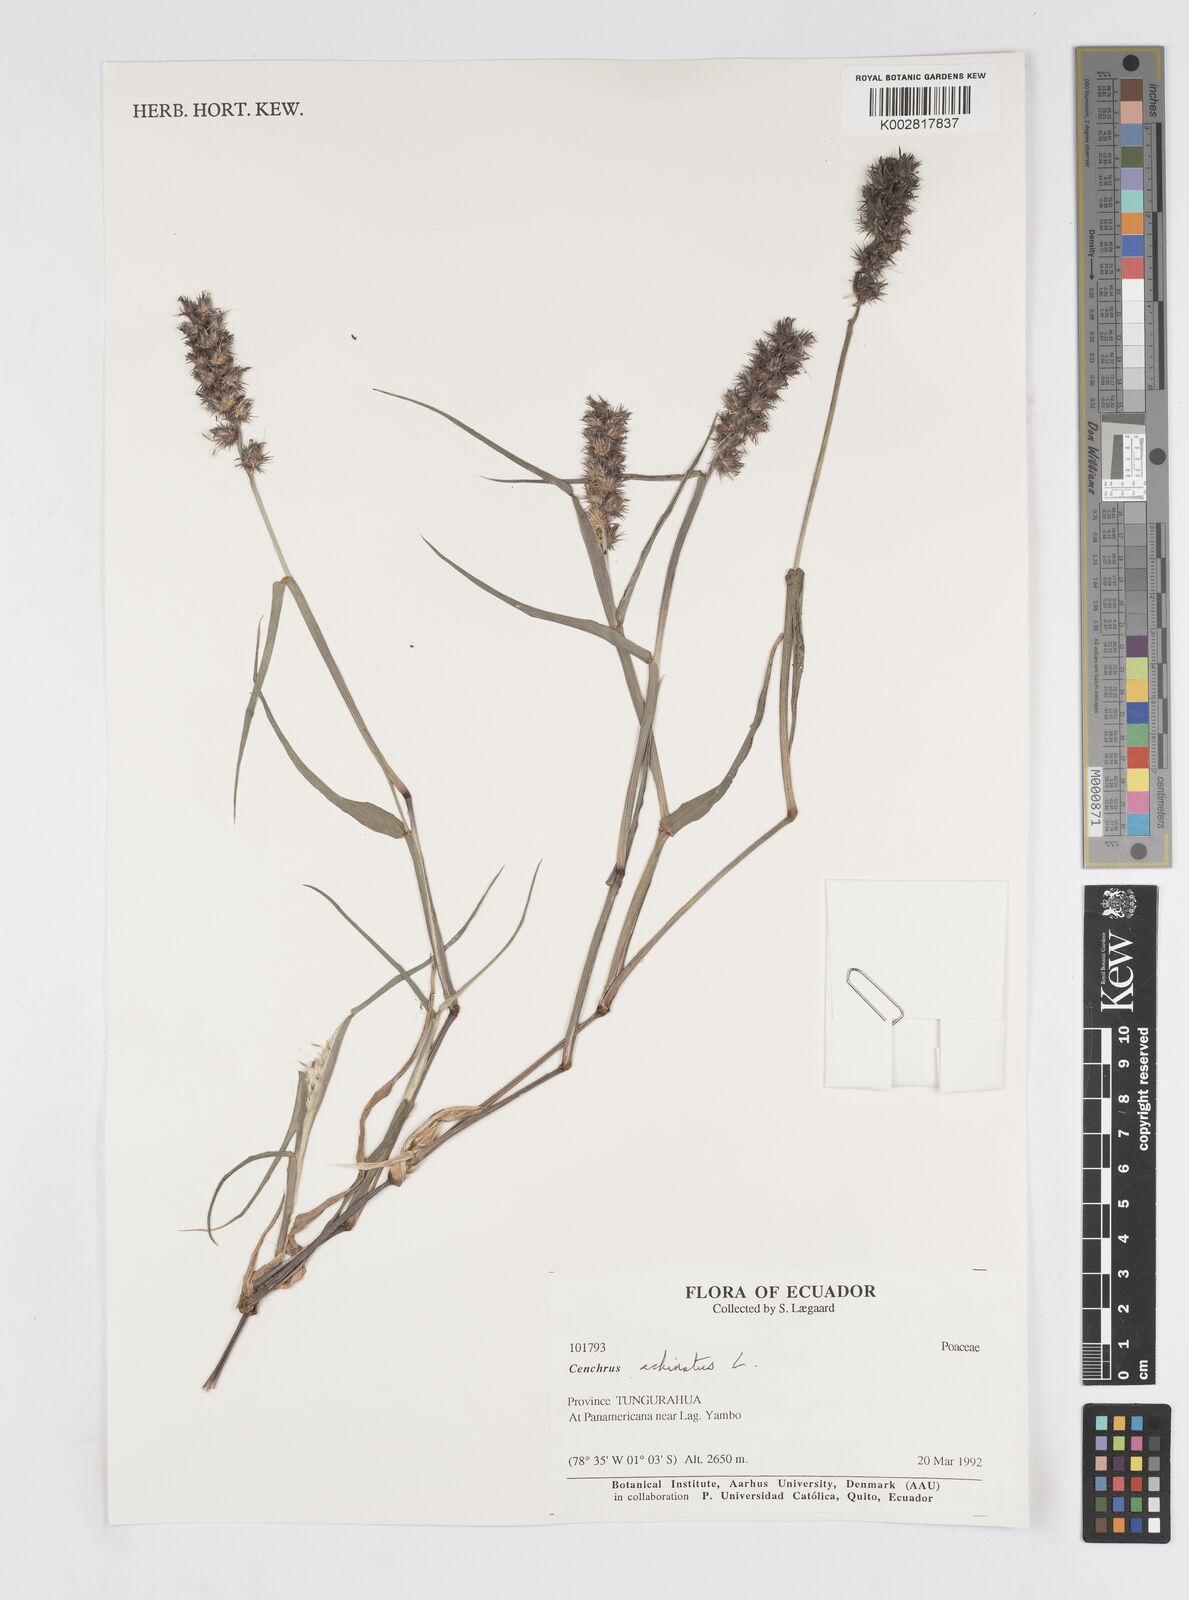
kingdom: Plantae
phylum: Tracheophyta
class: Liliopsida
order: Poales
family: Poaceae
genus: Cenchrus
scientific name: Cenchrus
